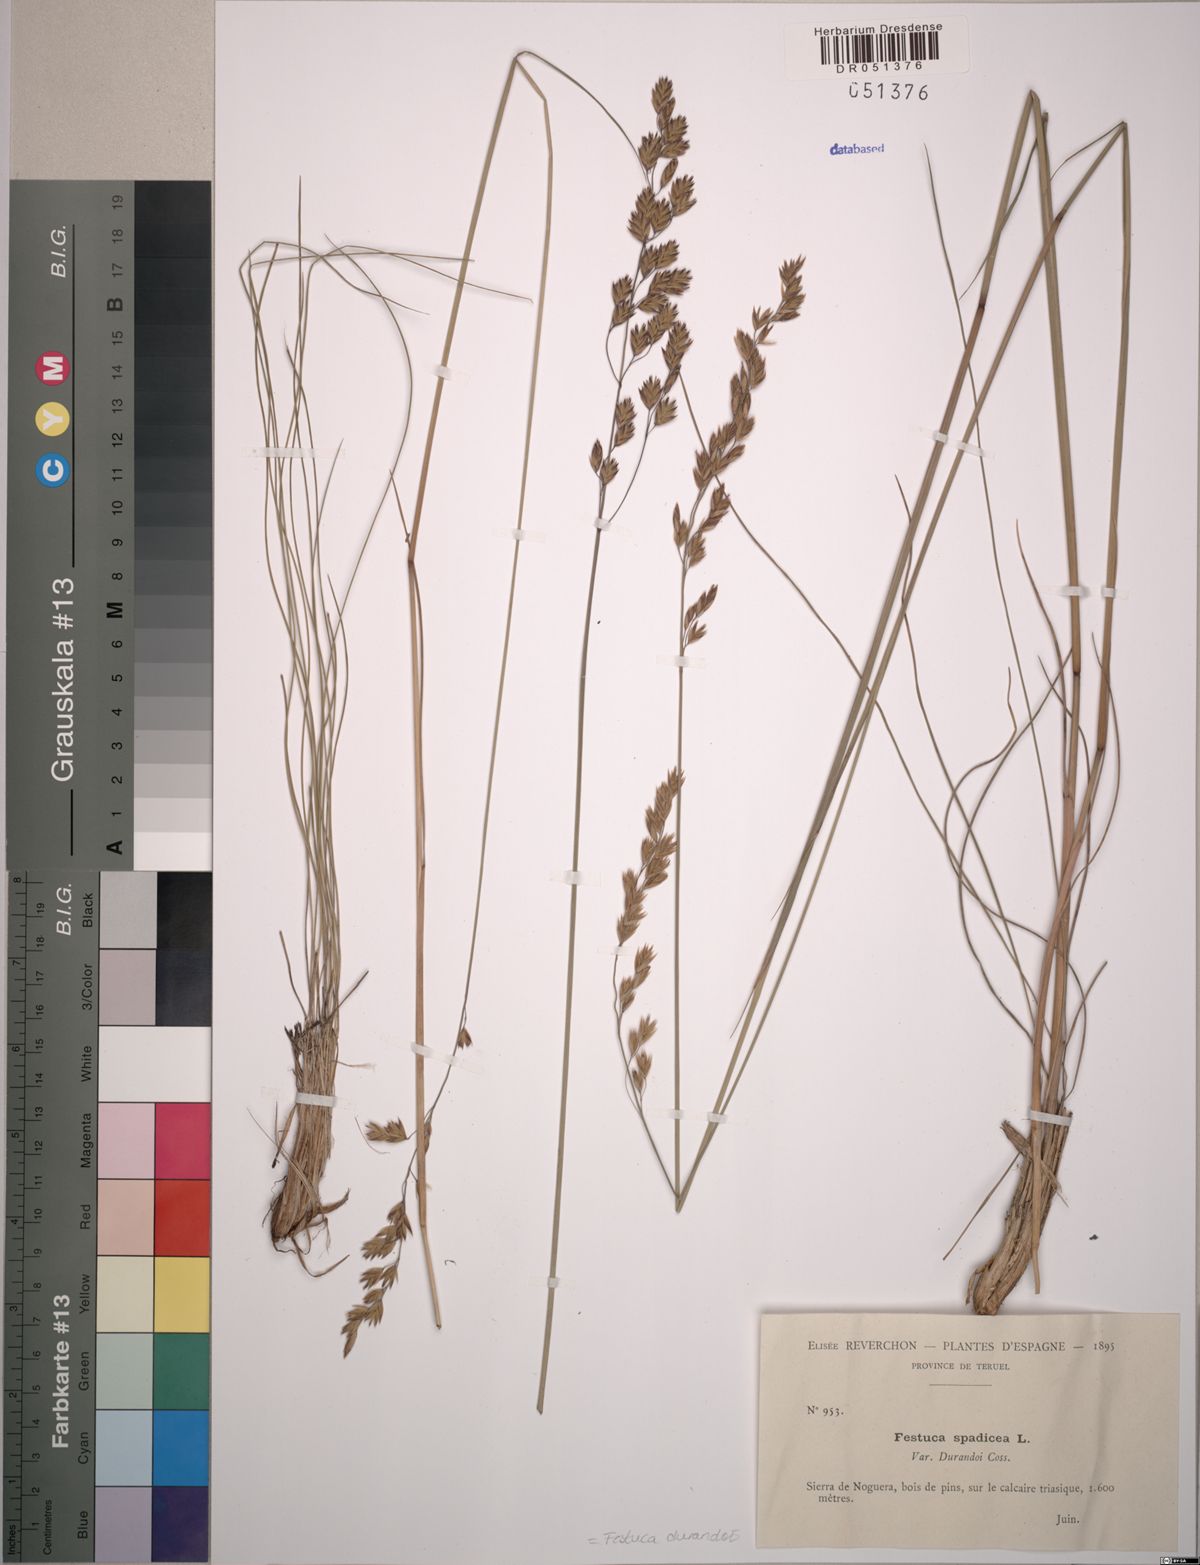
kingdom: Plantae
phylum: Tracheophyta
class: Liliopsida
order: Poales
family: Poaceae
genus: Patzkea
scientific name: Patzkea durandoi
